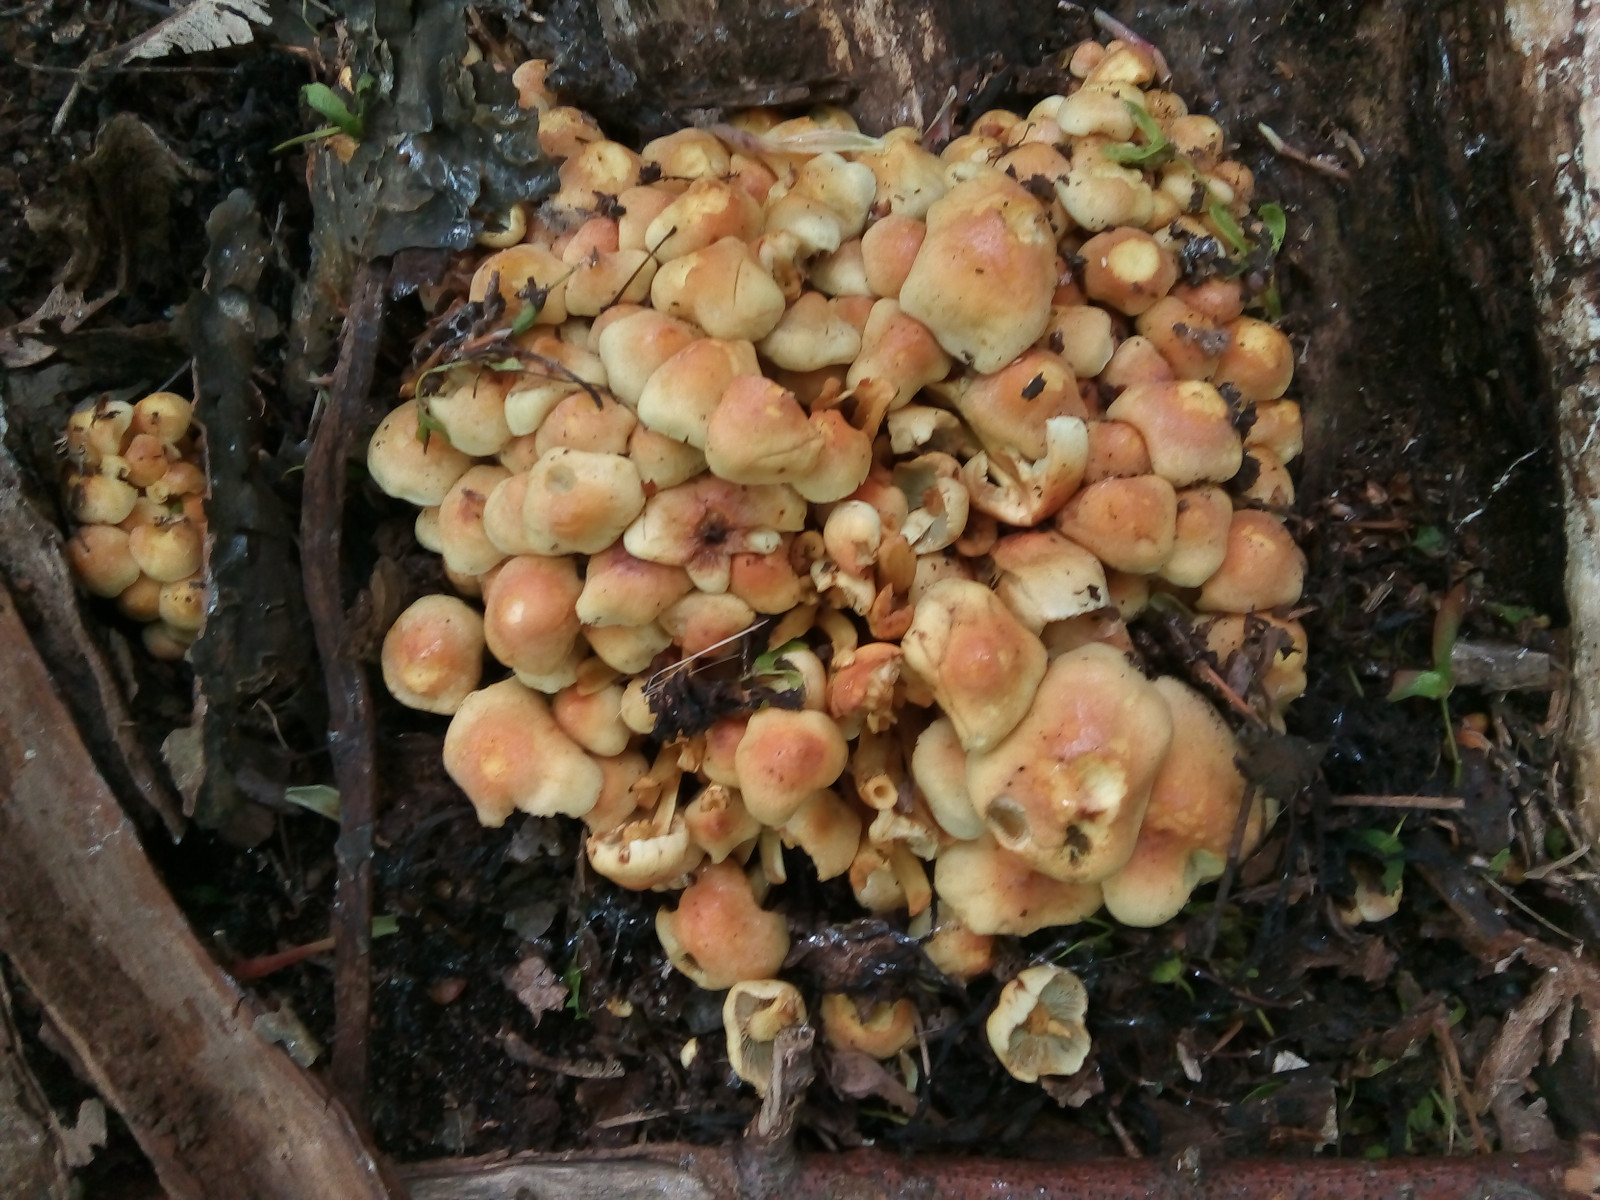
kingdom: Fungi
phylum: Basidiomycota
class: Agaricomycetes
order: Agaricales
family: Strophariaceae
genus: Hypholoma
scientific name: Hypholoma fasciculare
